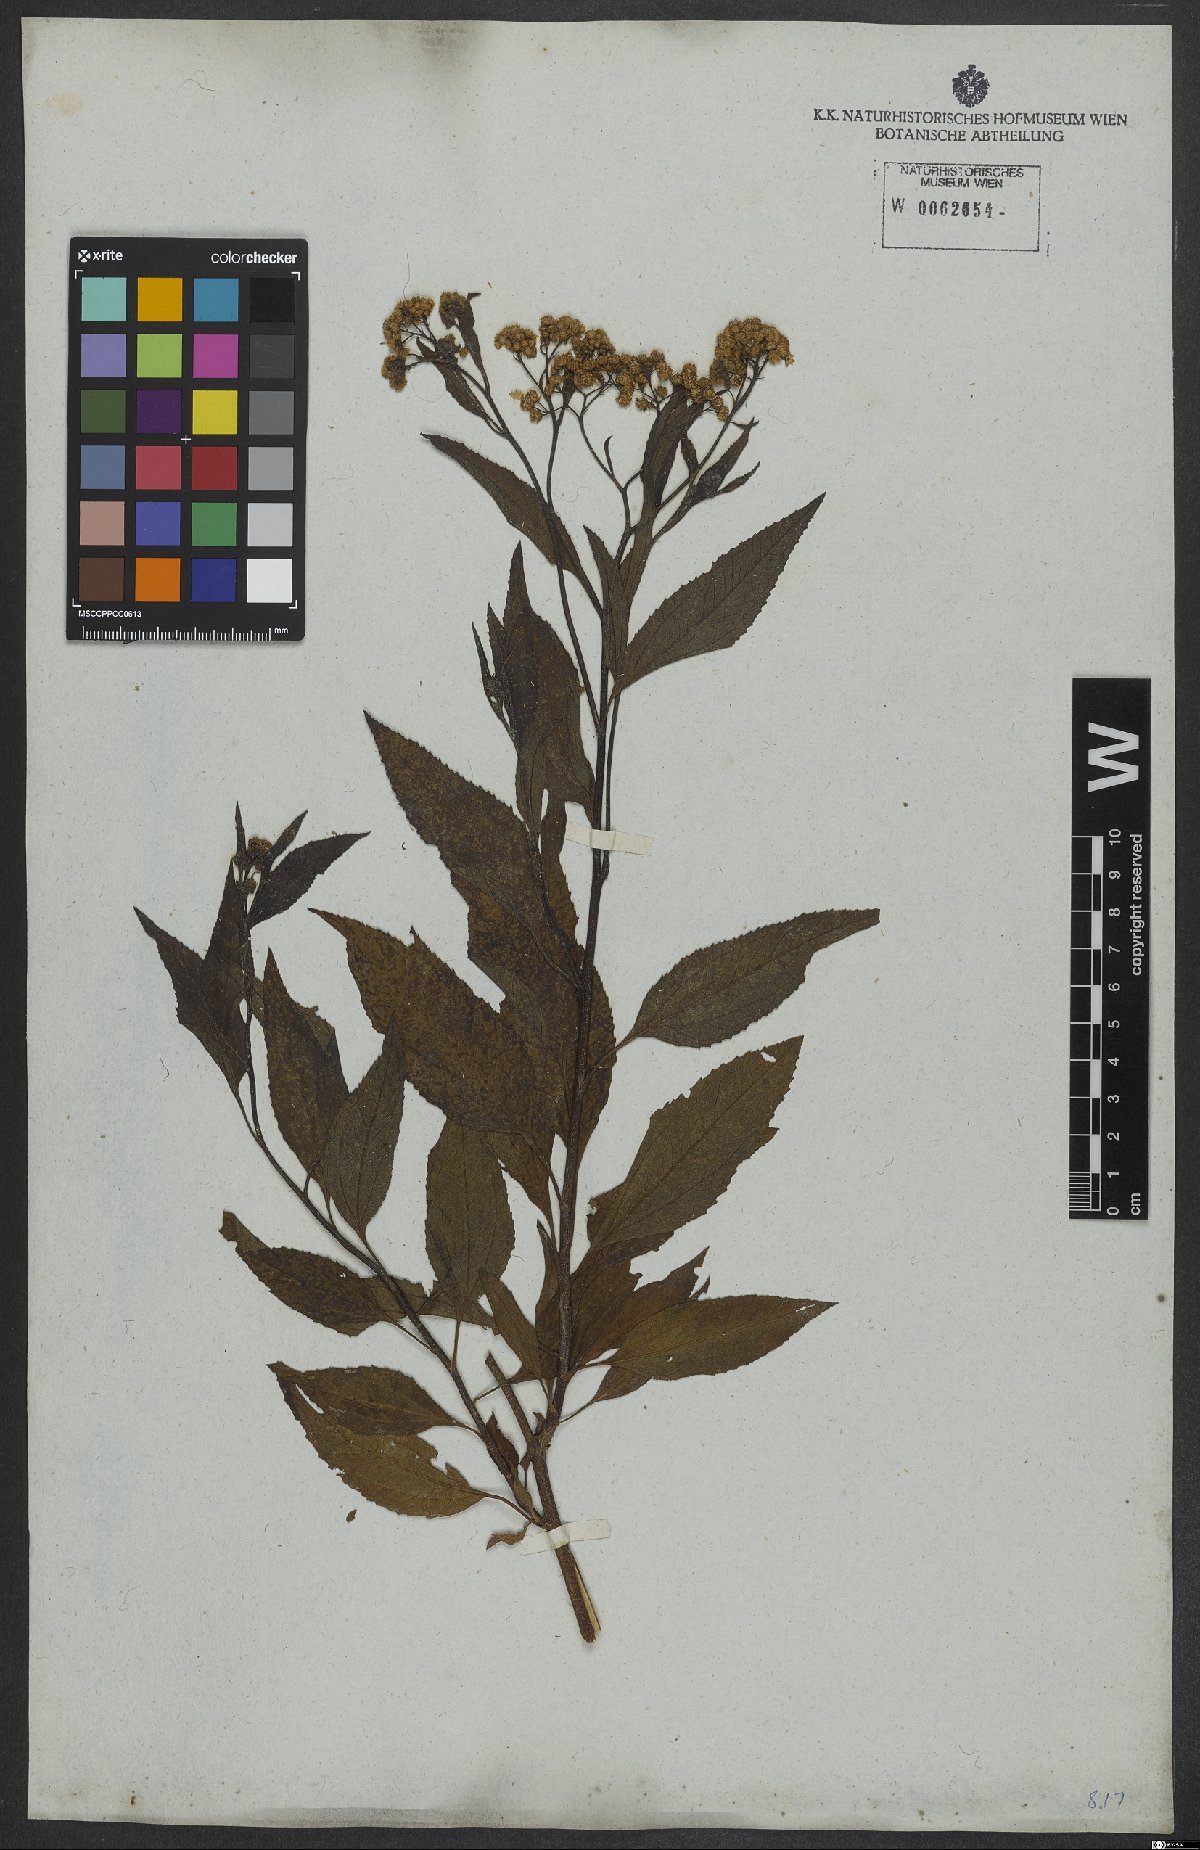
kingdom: Plantae
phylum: Tracheophyta
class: Magnoliopsida
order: Asterales
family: Asteraceae
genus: Archibaccharis
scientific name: Archibaccharis vulneraria
